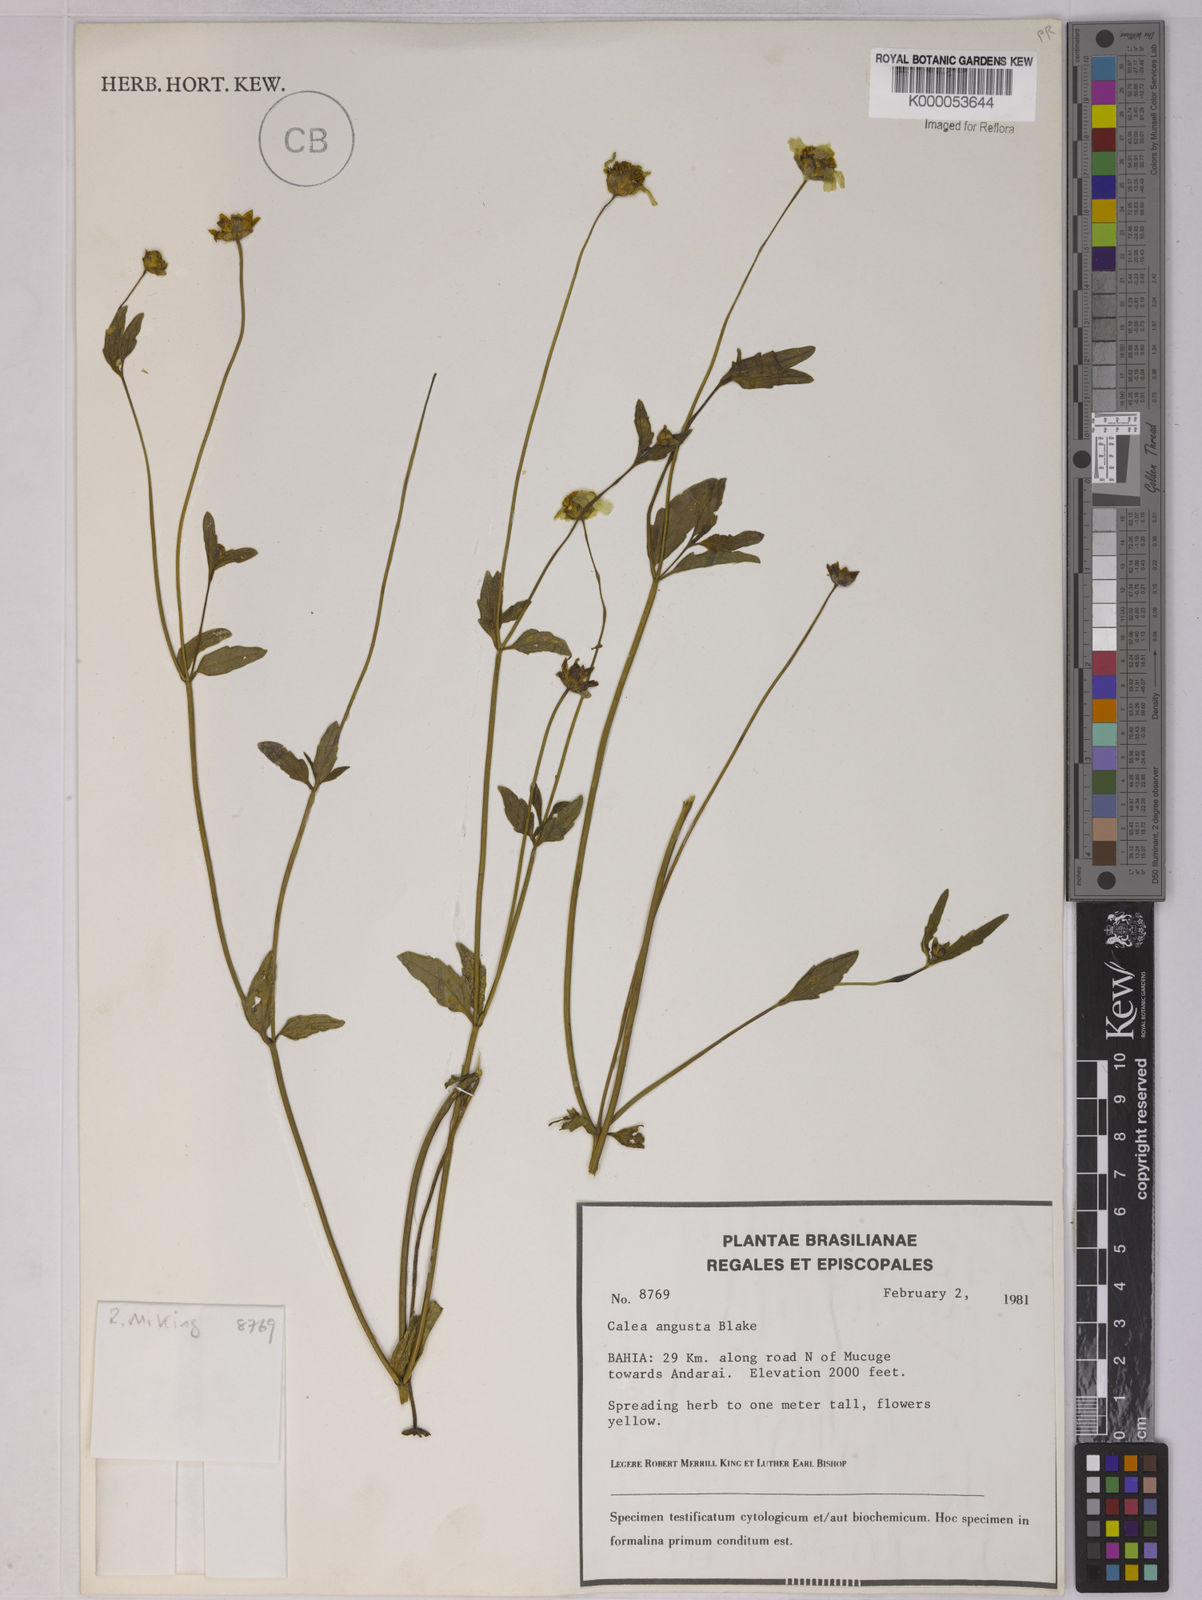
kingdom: Plantae
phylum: Tracheophyta
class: Magnoliopsida
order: Asterales
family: Asteraceae
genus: Calea
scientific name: Calea angusta
